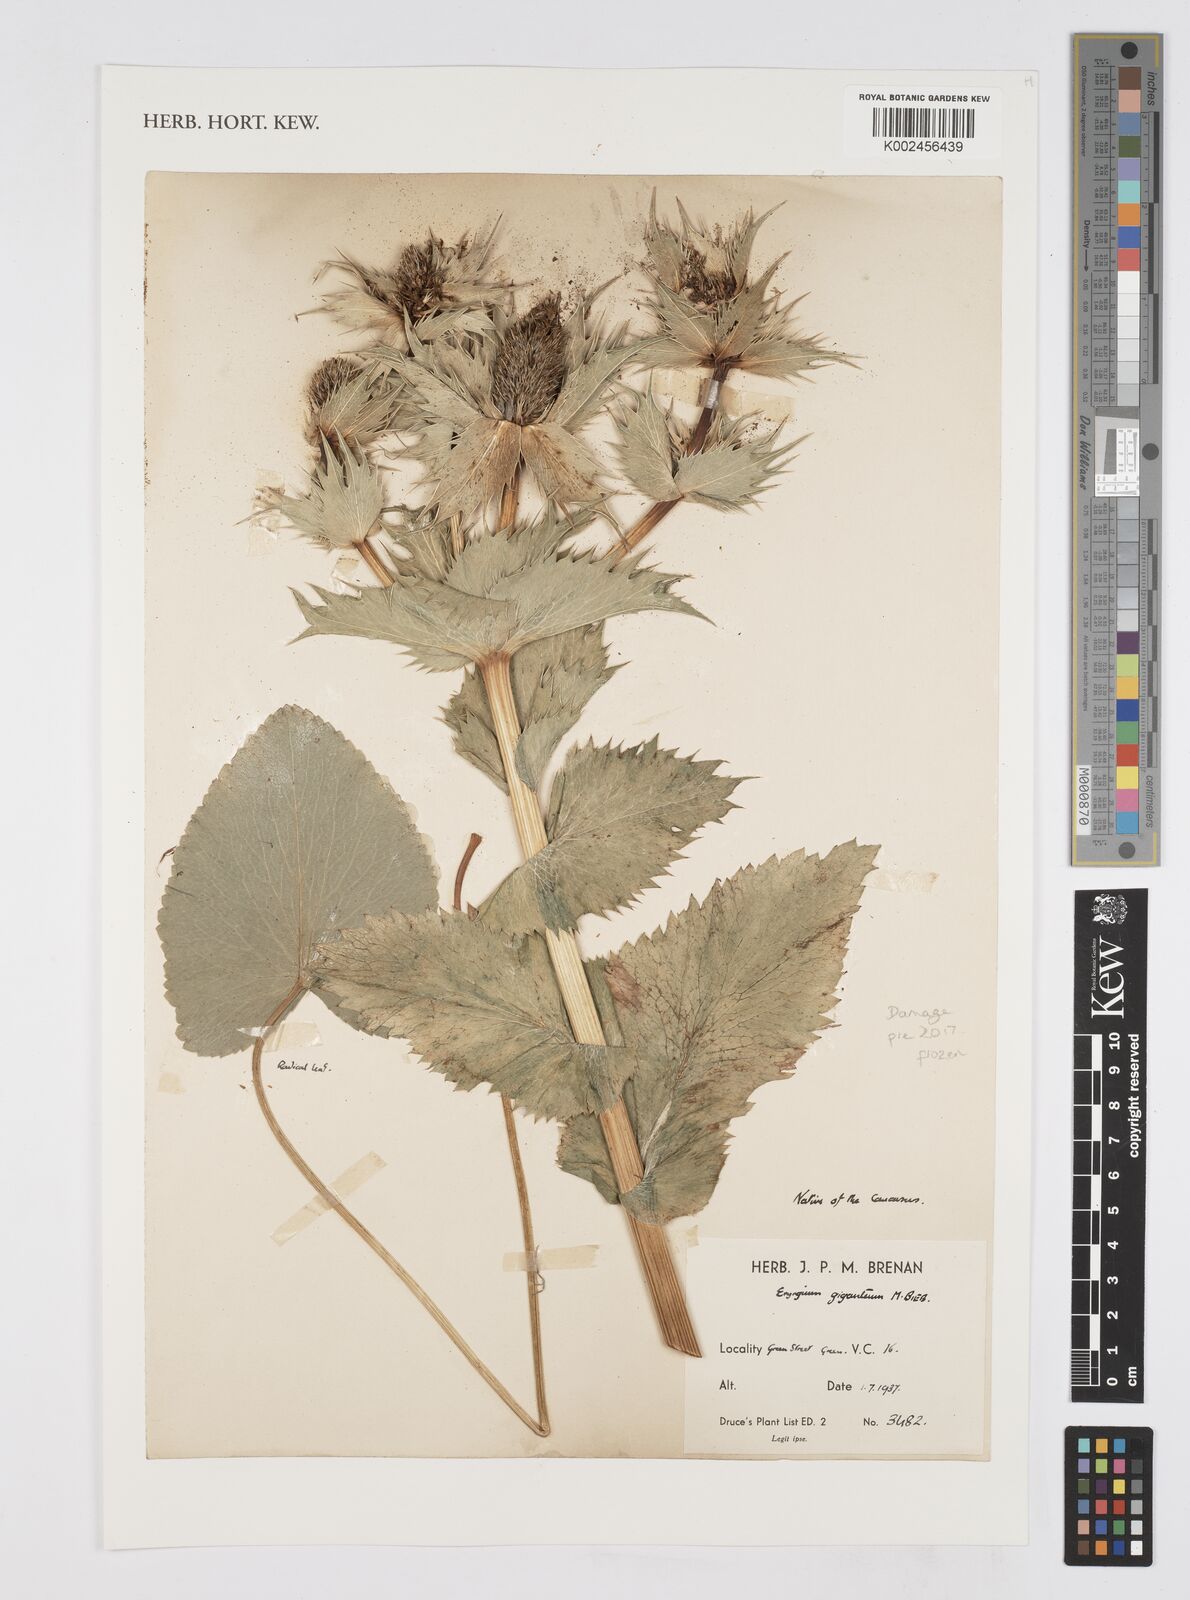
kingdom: Plantae
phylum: Tracheophyta
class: Magnoliopsida
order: Apiales
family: Apiaceae
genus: Eryngium
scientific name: Eryngium giganteum
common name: Tall eryngo
